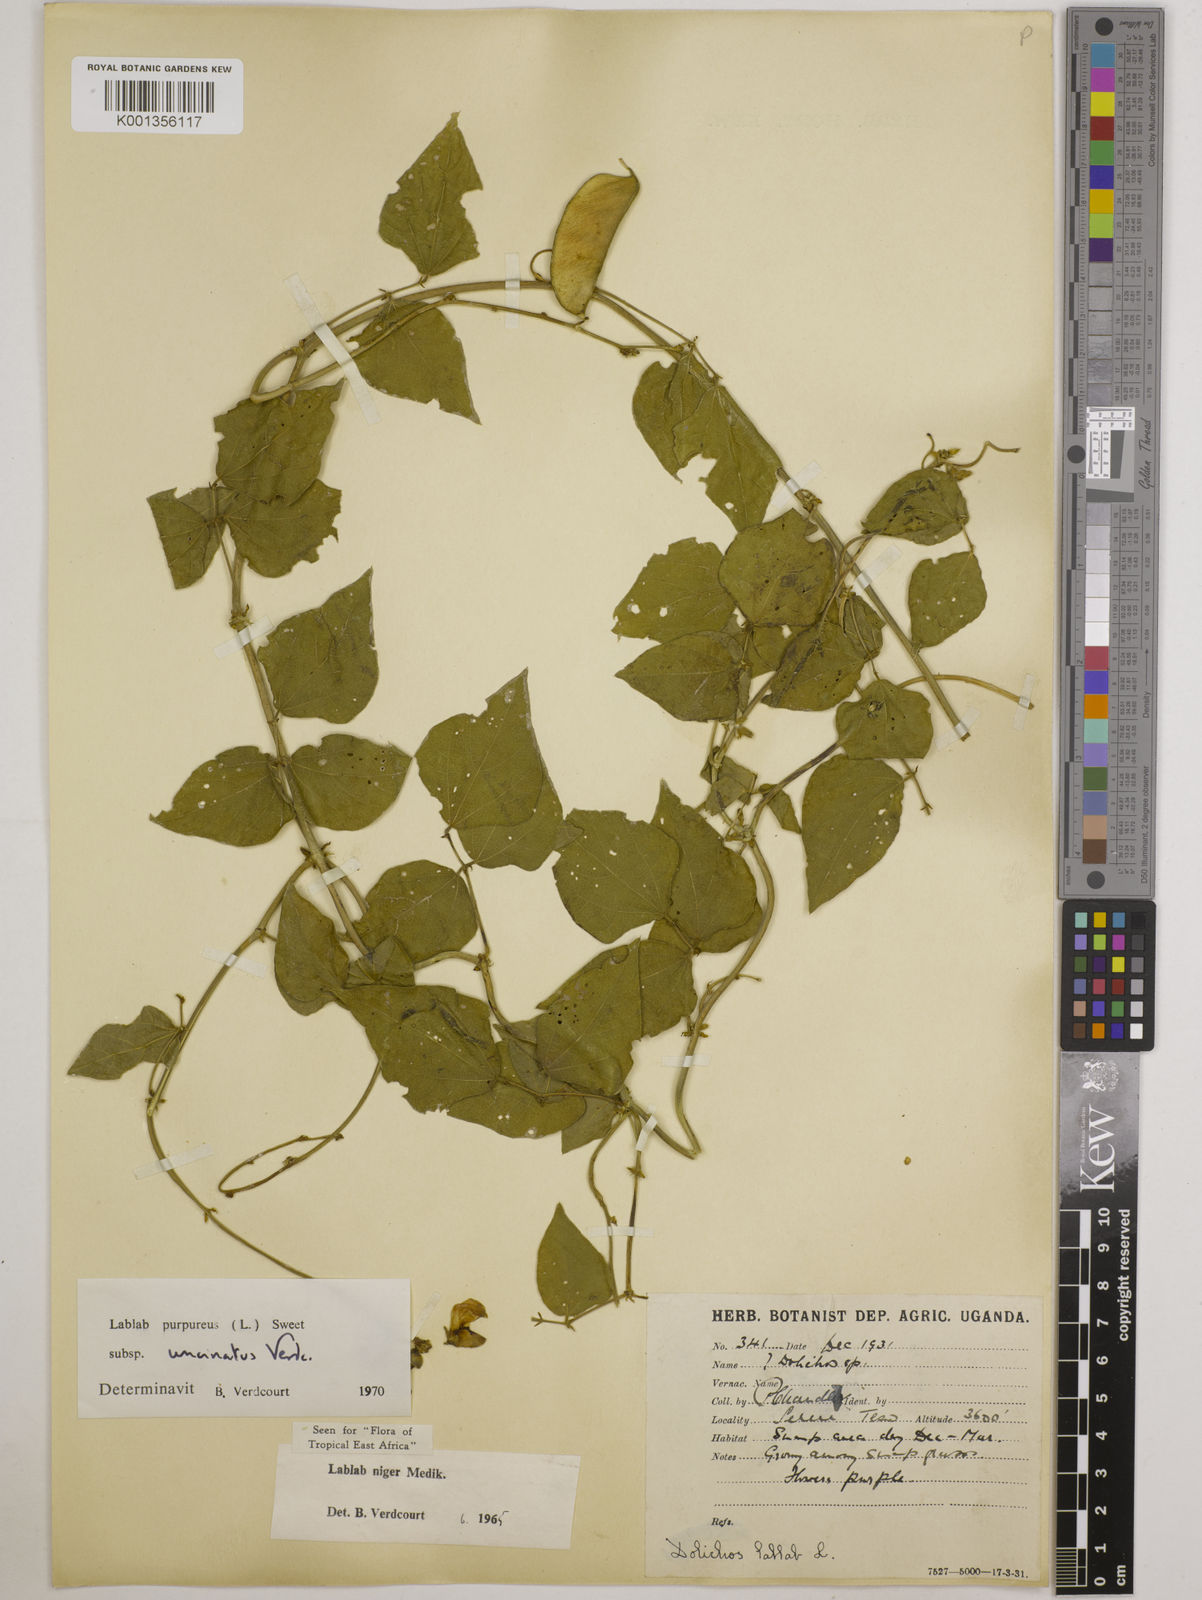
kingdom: Plantae
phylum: Tracheophyta
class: Magnoliopsida
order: Fabales
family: Fabaceae
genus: Lablab
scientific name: Lablab purpureus
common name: Lablab-bean
